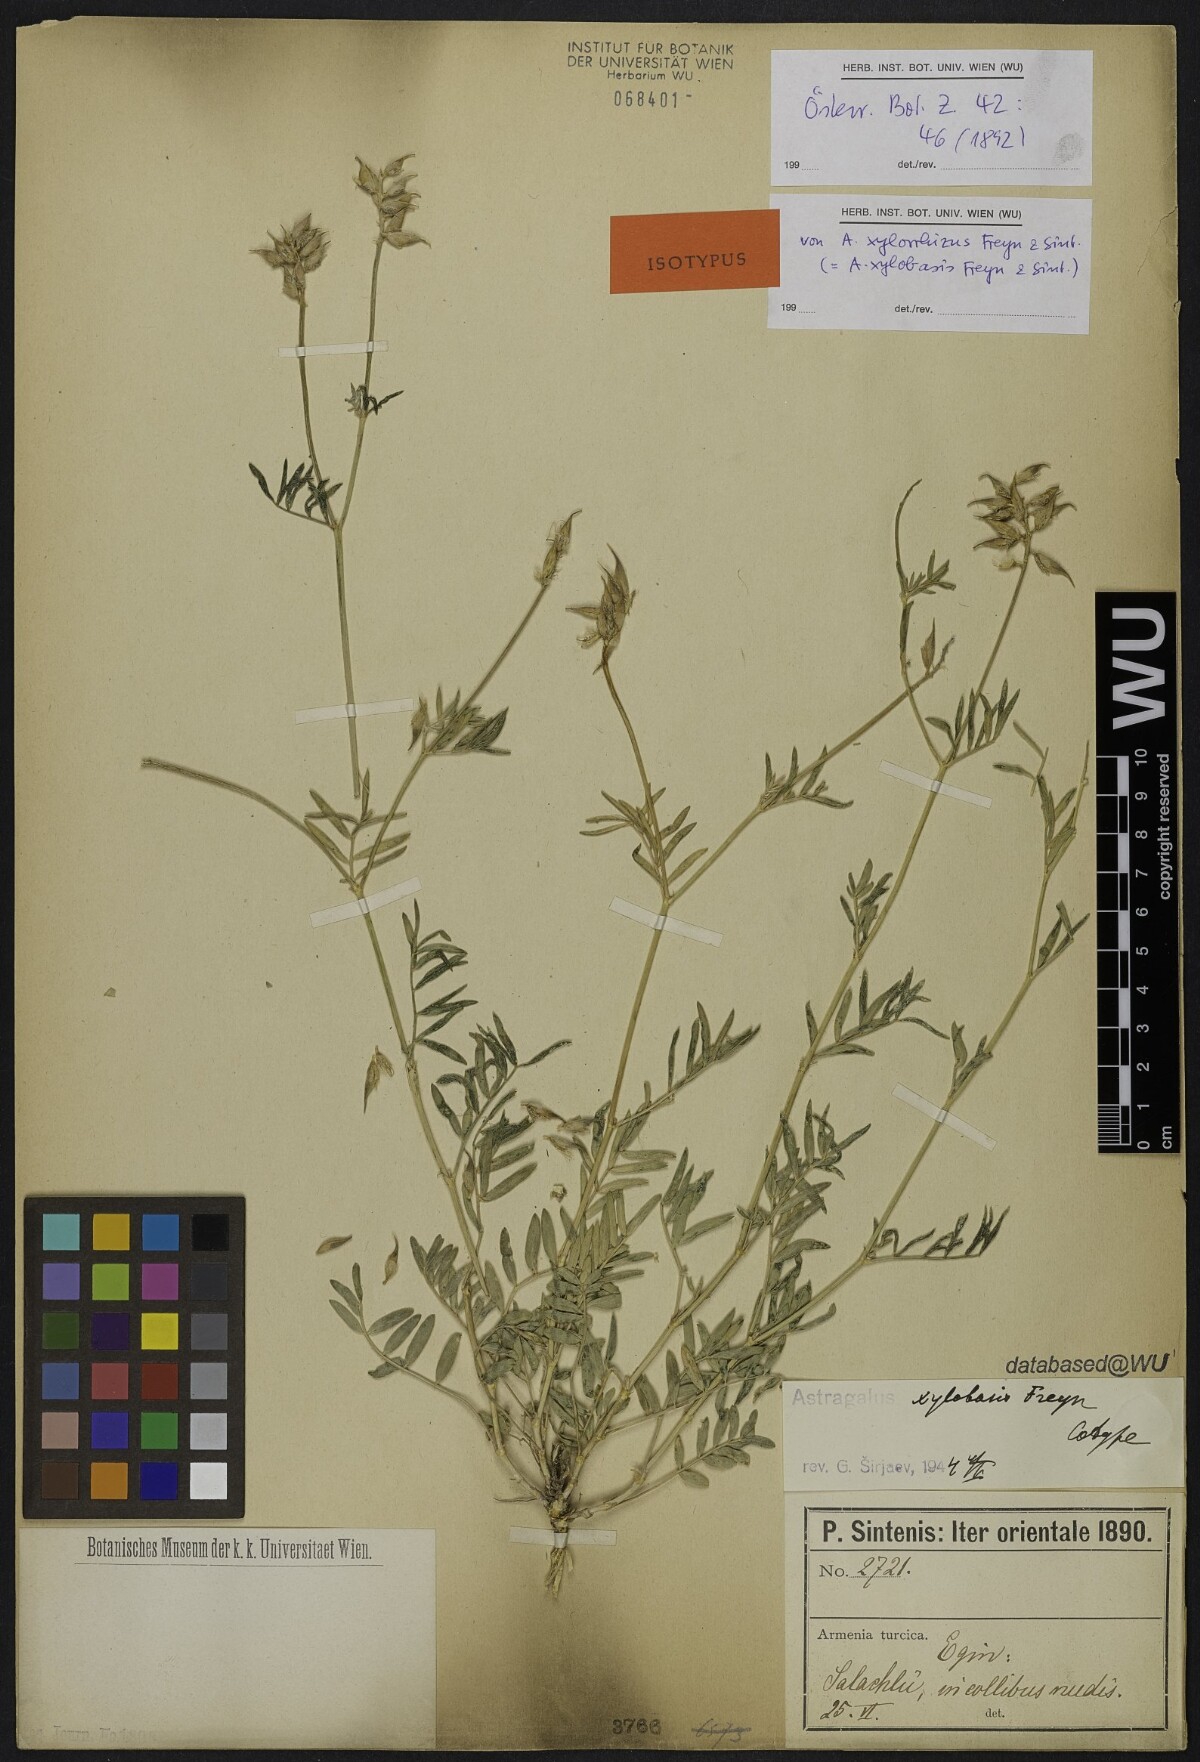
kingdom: Plantae
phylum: Tracheophyta
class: Magnoliopsida
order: Fabales
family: Fabaceae
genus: Astragalus
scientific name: Astragalus aduncus
